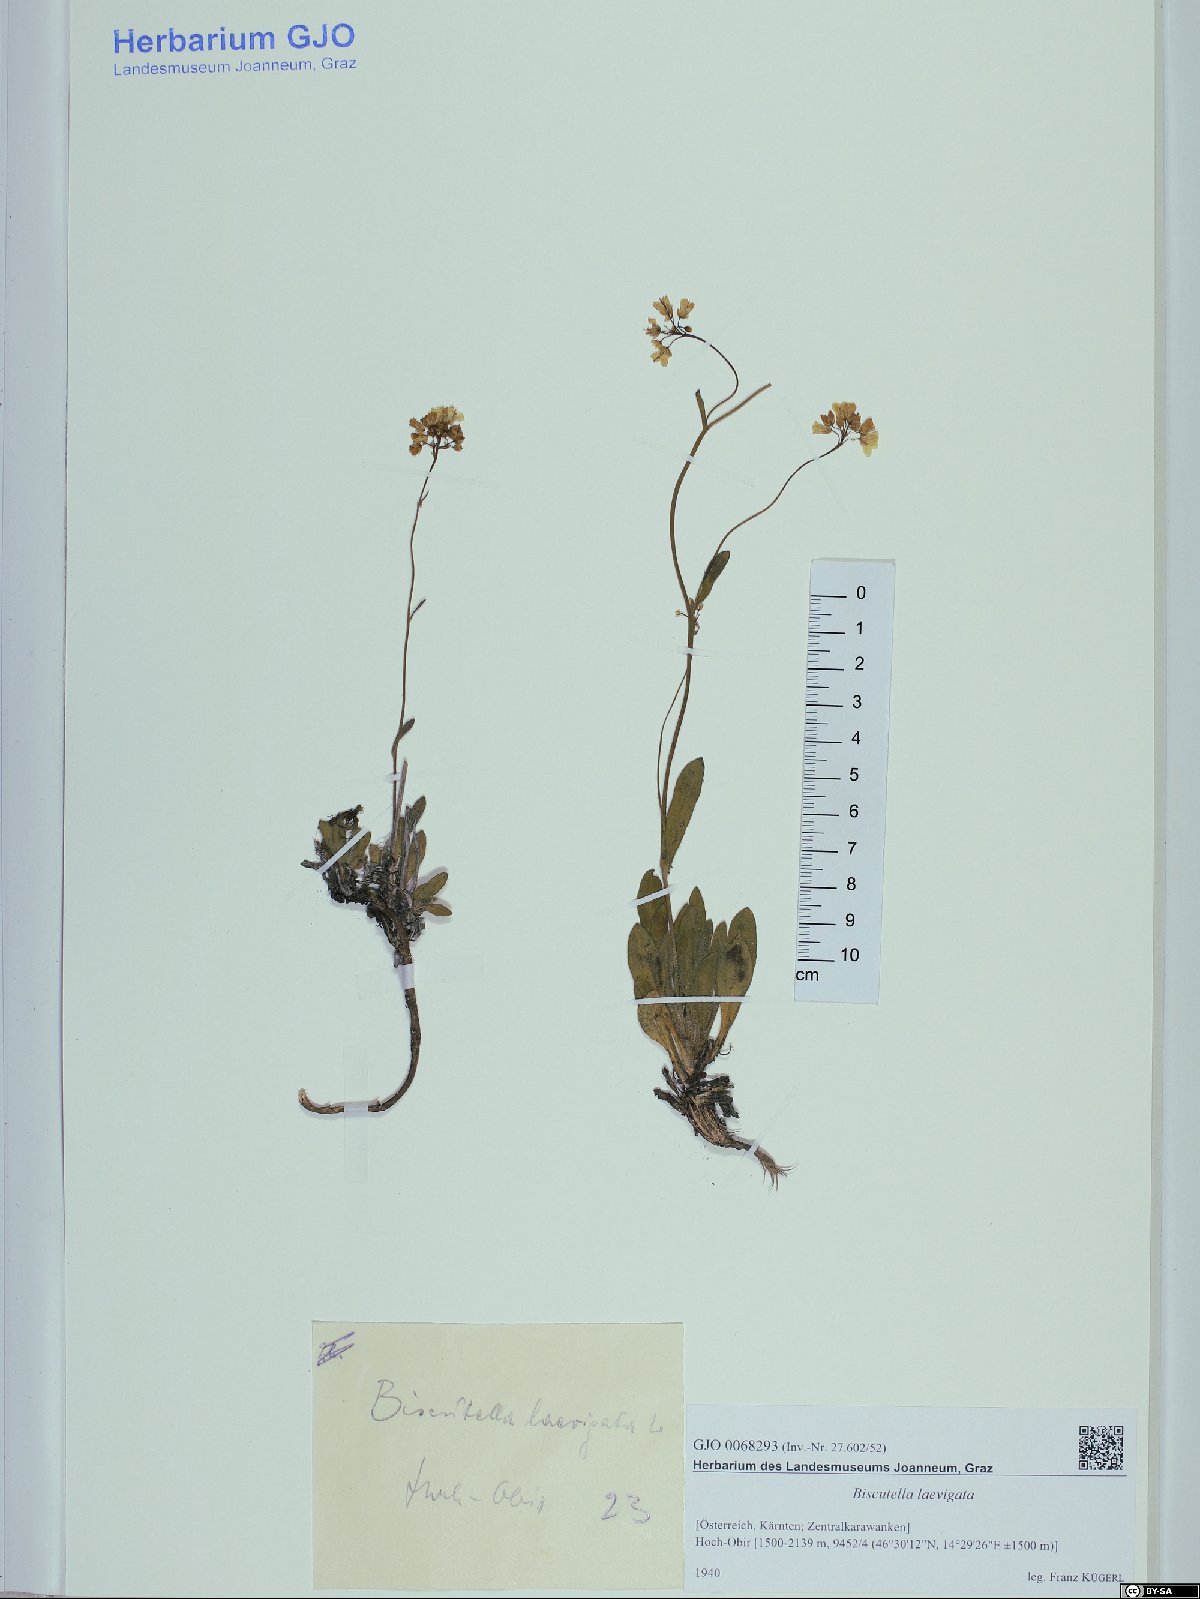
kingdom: Plantae
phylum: Tracheophyta
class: Magnoliopsida
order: Brassicales
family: Brassicaceae
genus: Biscutella
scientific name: Biscutella laevigata
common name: Buckler mustard
